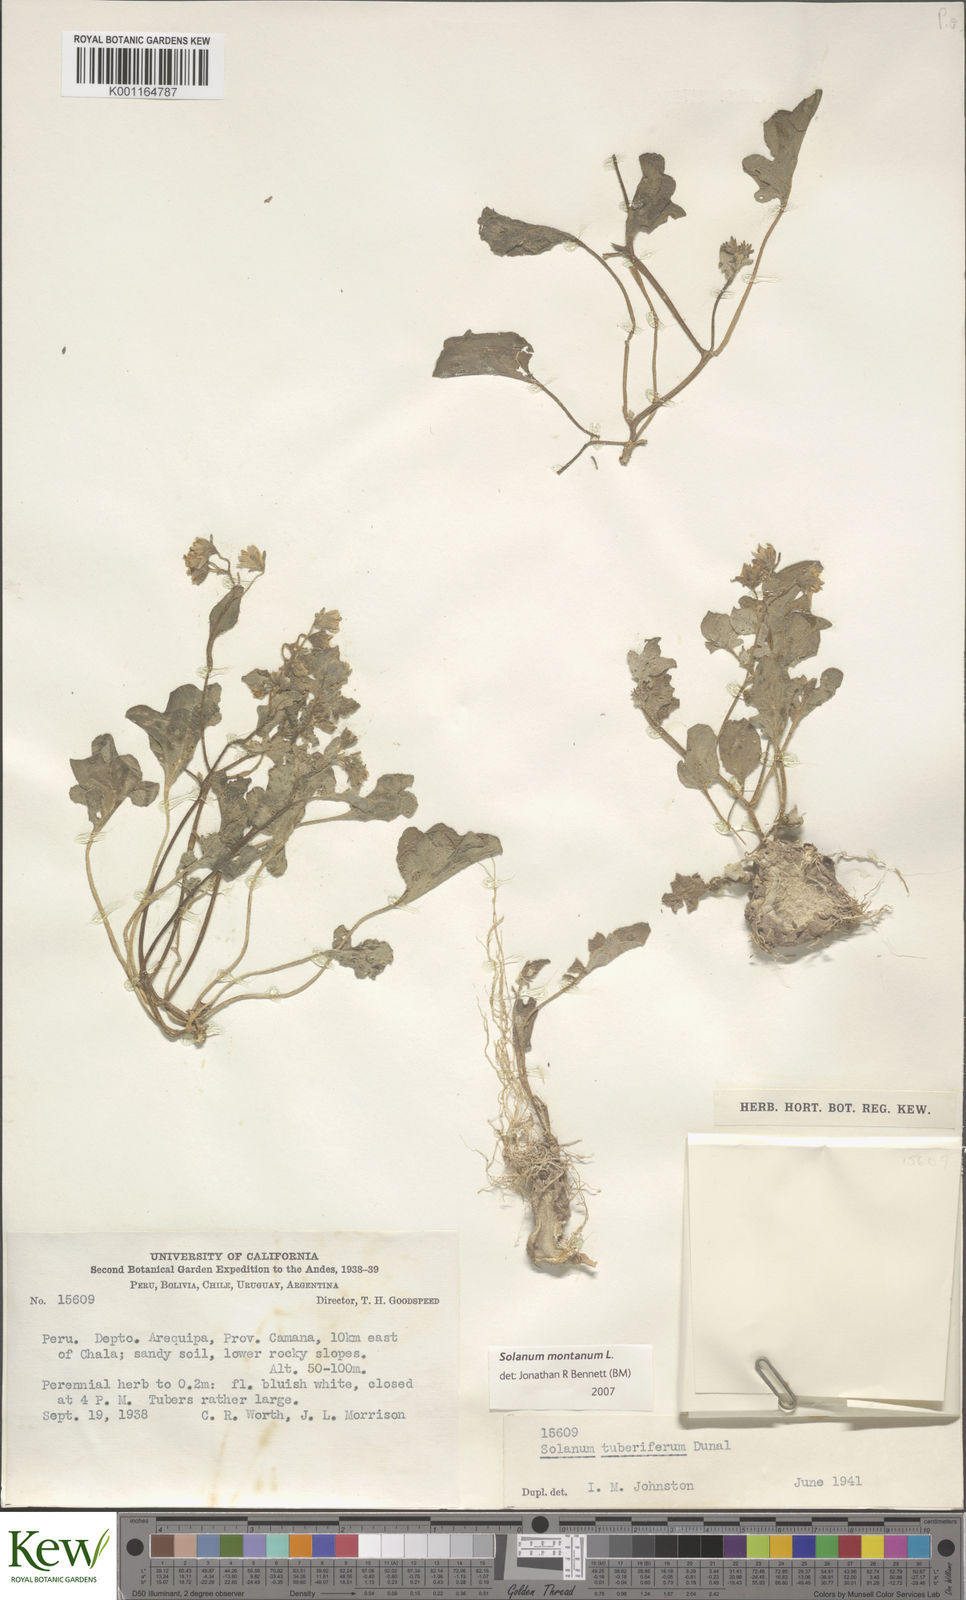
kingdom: Plantae
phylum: Tracheophyta
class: Magnoliopsida
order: Solanales
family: Solanaceae
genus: Solanum
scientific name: Solanum montanum
